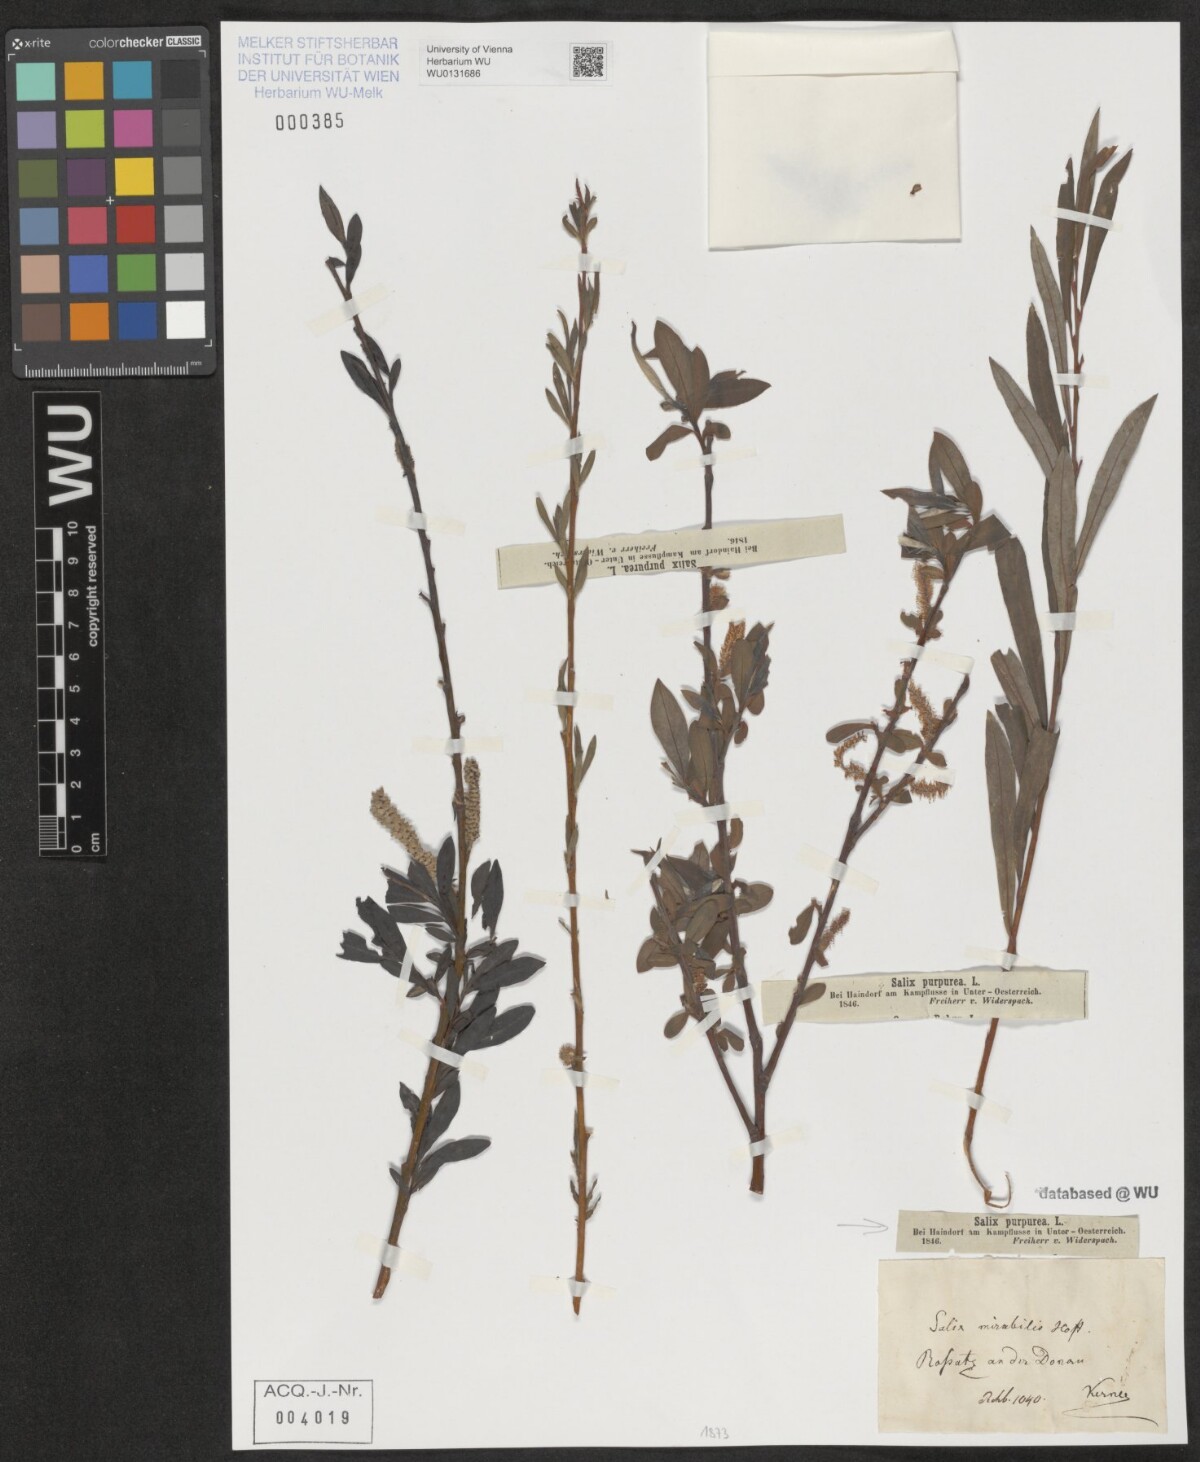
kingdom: Plantae
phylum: Tracheophyta
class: Magnoliopsida
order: Malpighiales
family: Salicaceae
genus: Salix
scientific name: Salix purpurea
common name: Purple willow
